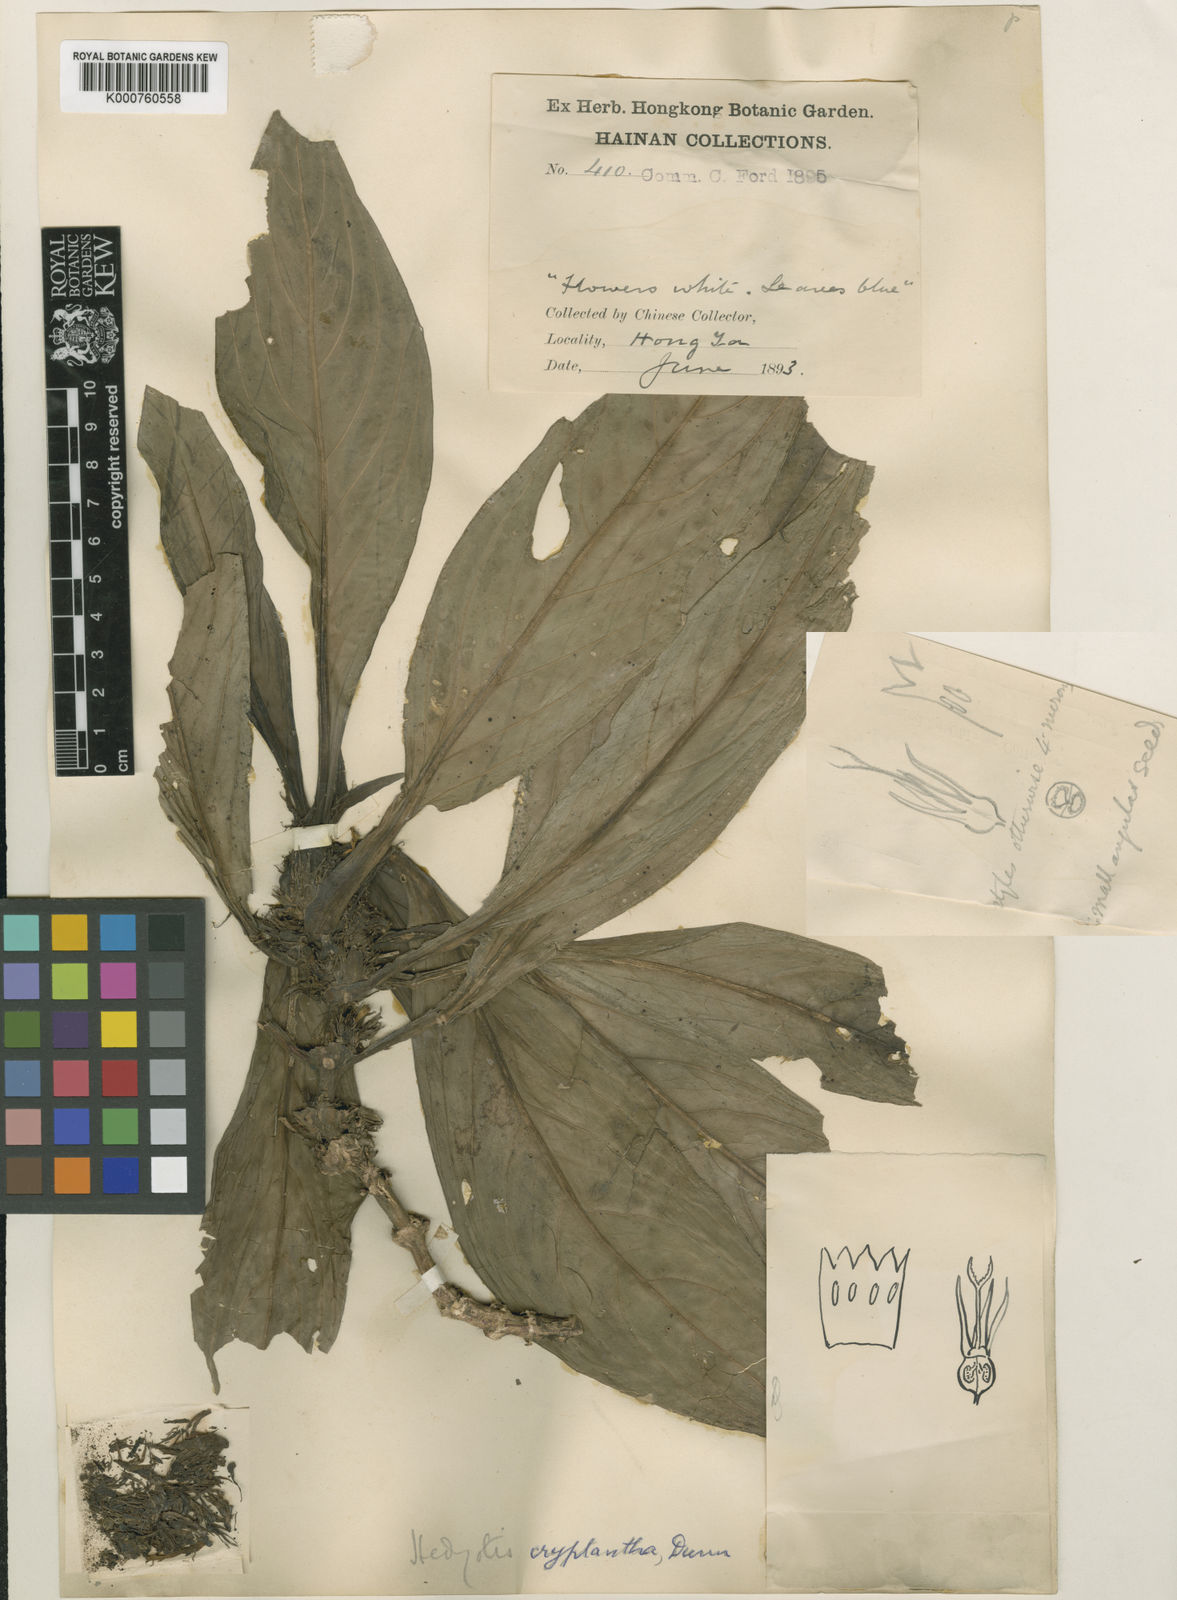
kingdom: Plantae
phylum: Tracheophyta
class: Magnoliopsida
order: Gentianales
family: Rubiaceae
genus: Hedyotis
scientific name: Hedyotis cryptantha
